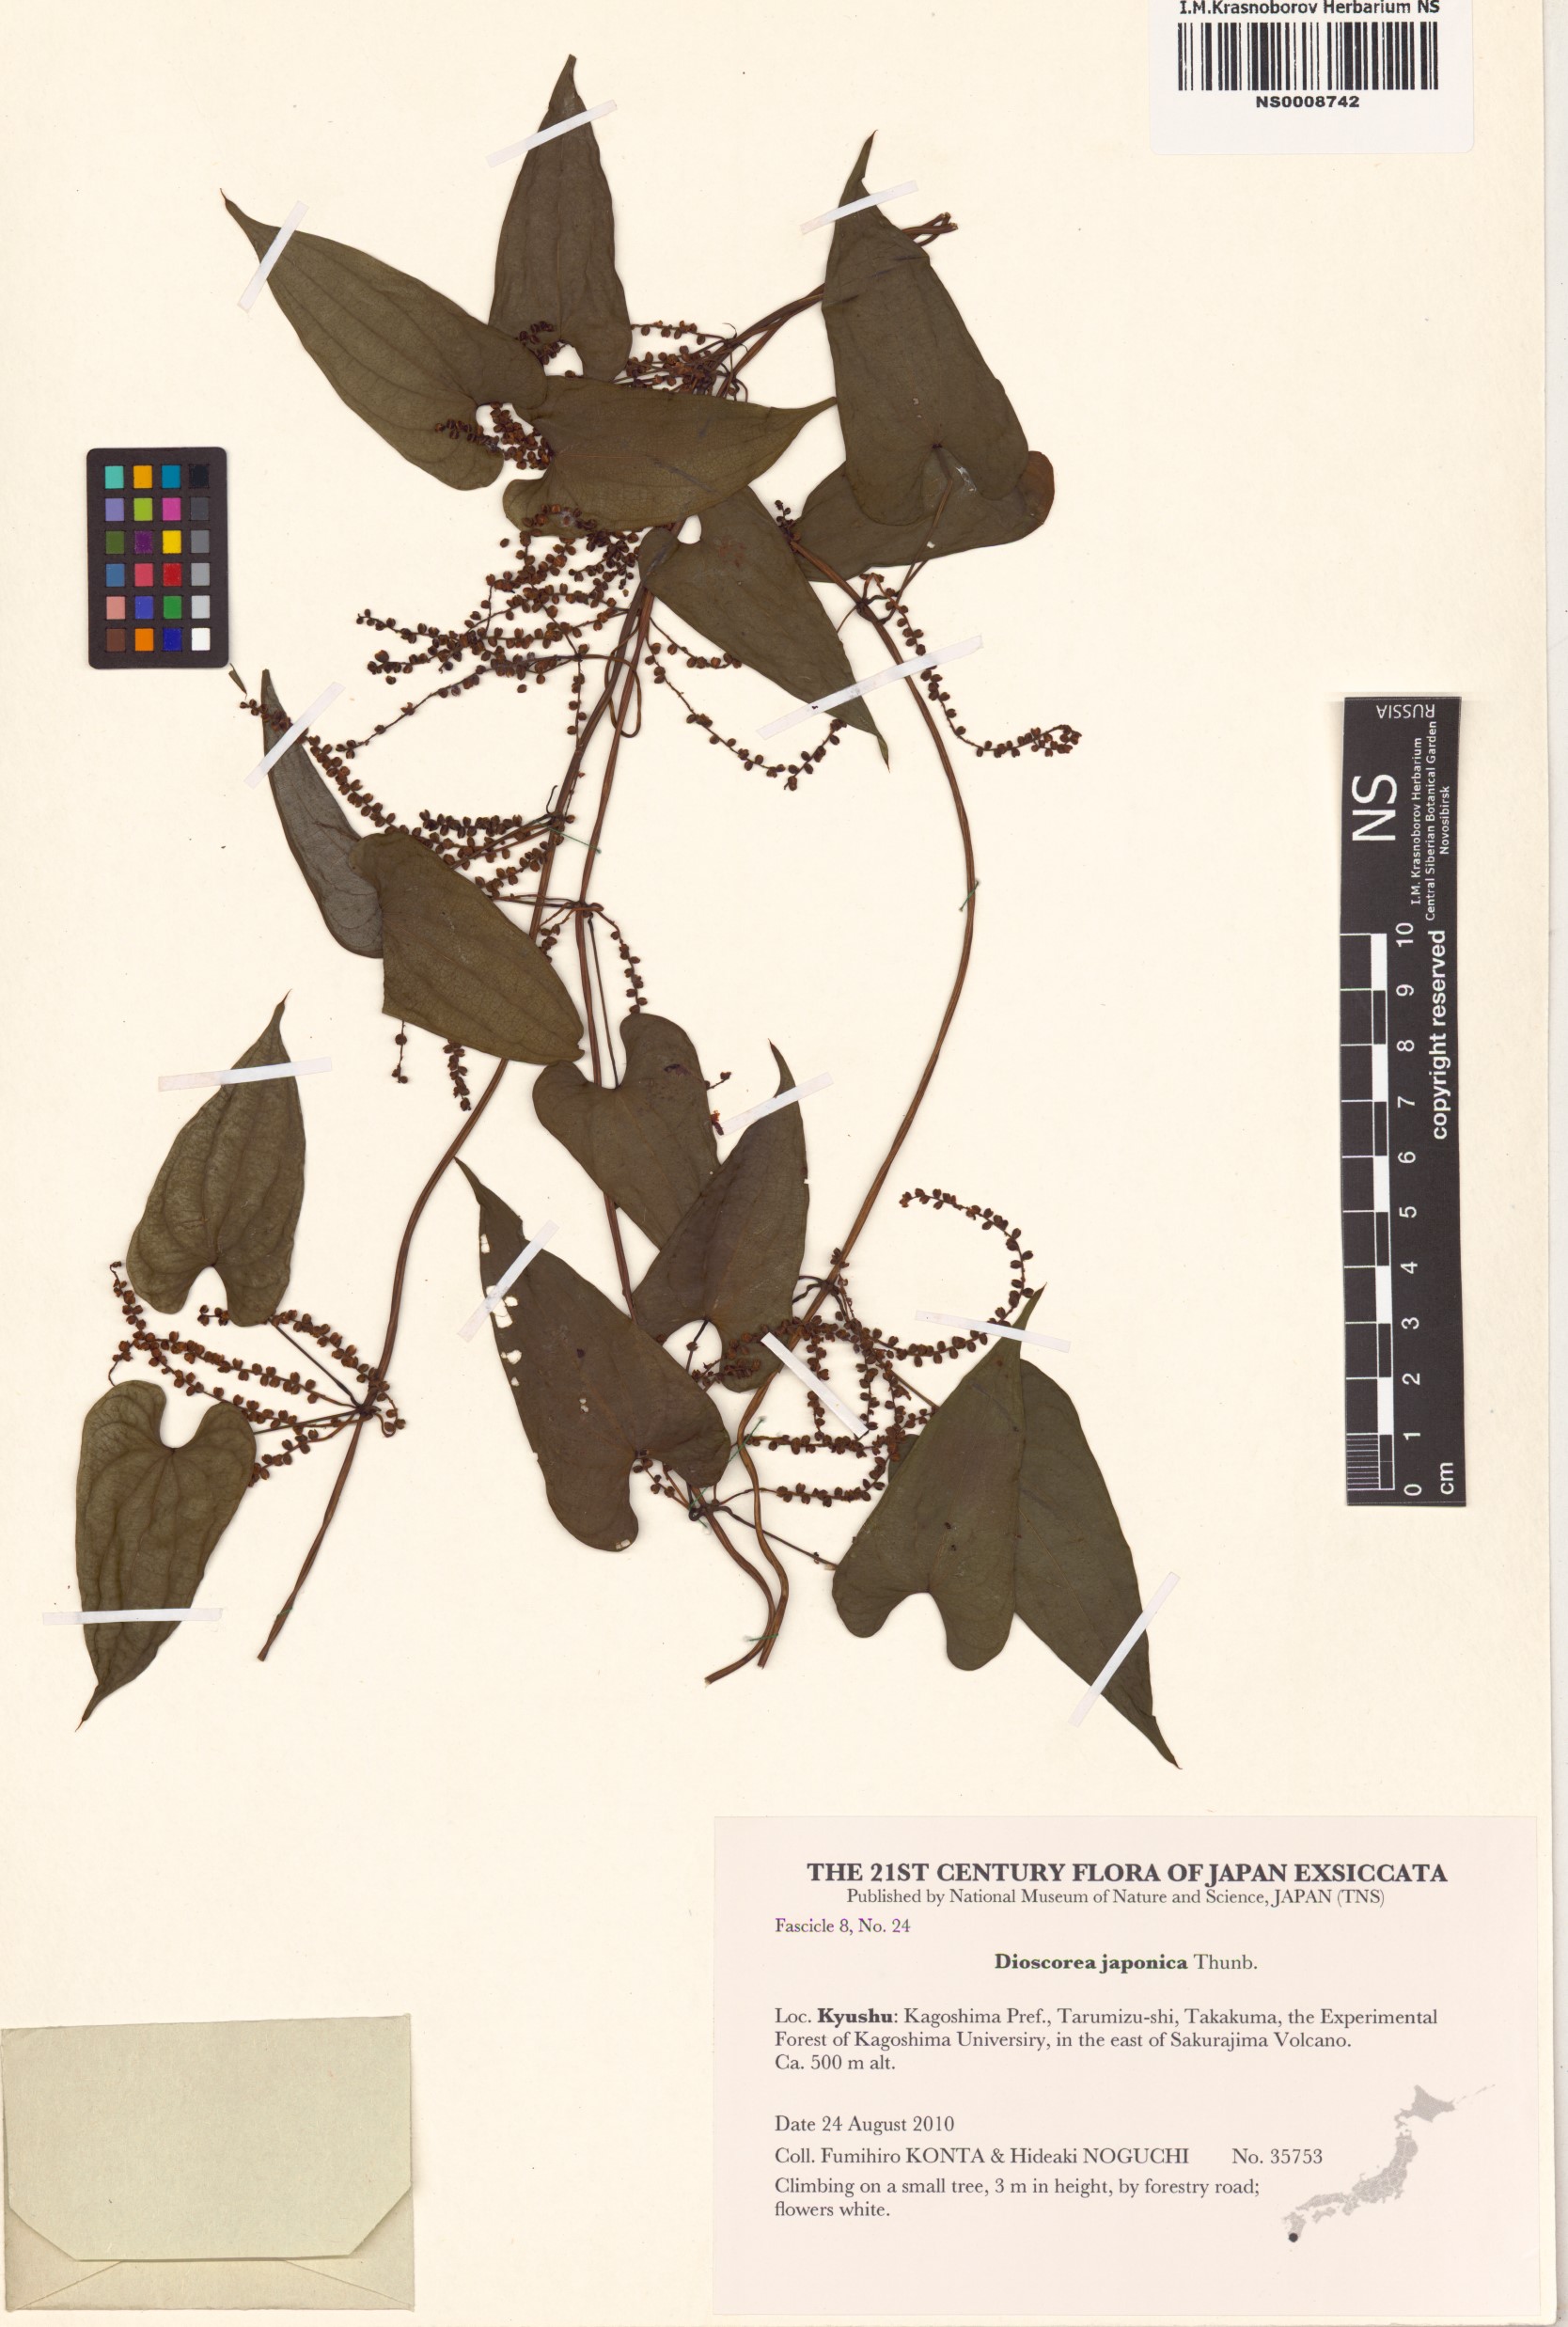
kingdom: Plantae
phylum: Tracheophyta
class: Liliopsida
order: Dioscoreales
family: Dioscoreaceae
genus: Dioscorea
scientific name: Dioscorea japonica
